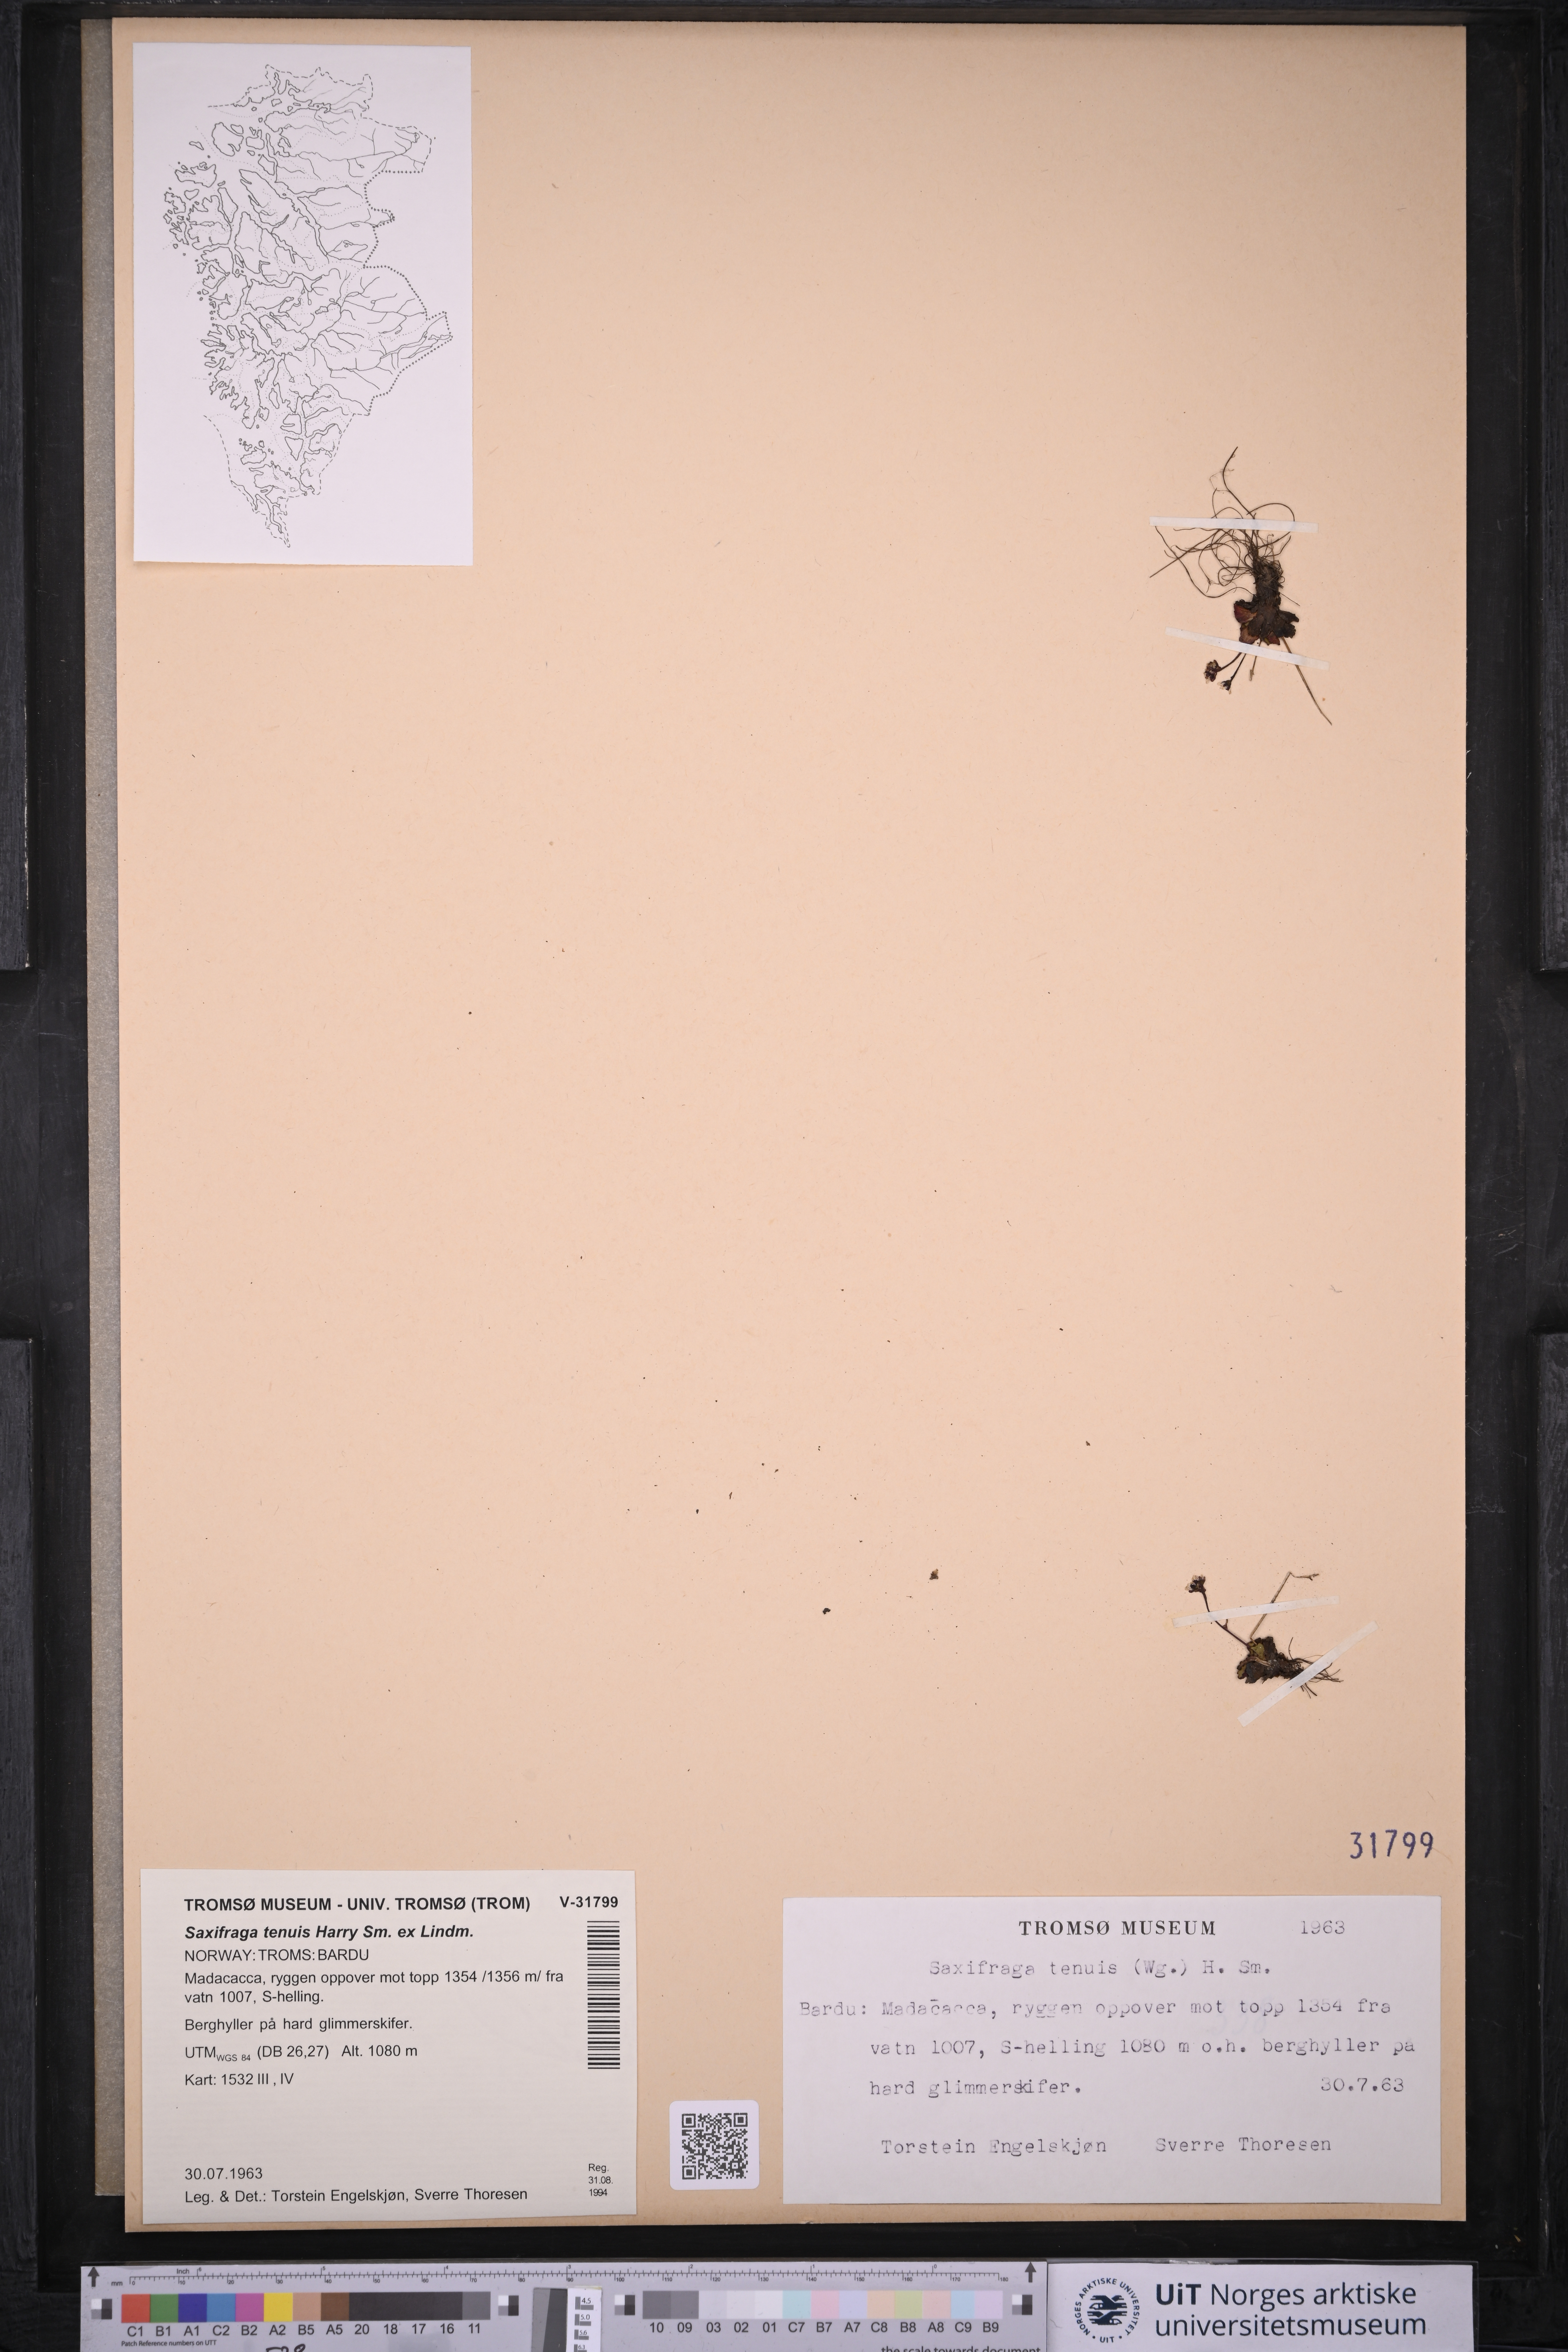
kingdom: Plantae
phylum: Tracheophyta
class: Magnoliopsida
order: Saxifragales
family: Saxifragaceae
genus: Micranthes
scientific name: Micranthes tenuis
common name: Ottertail pass saxifrage
